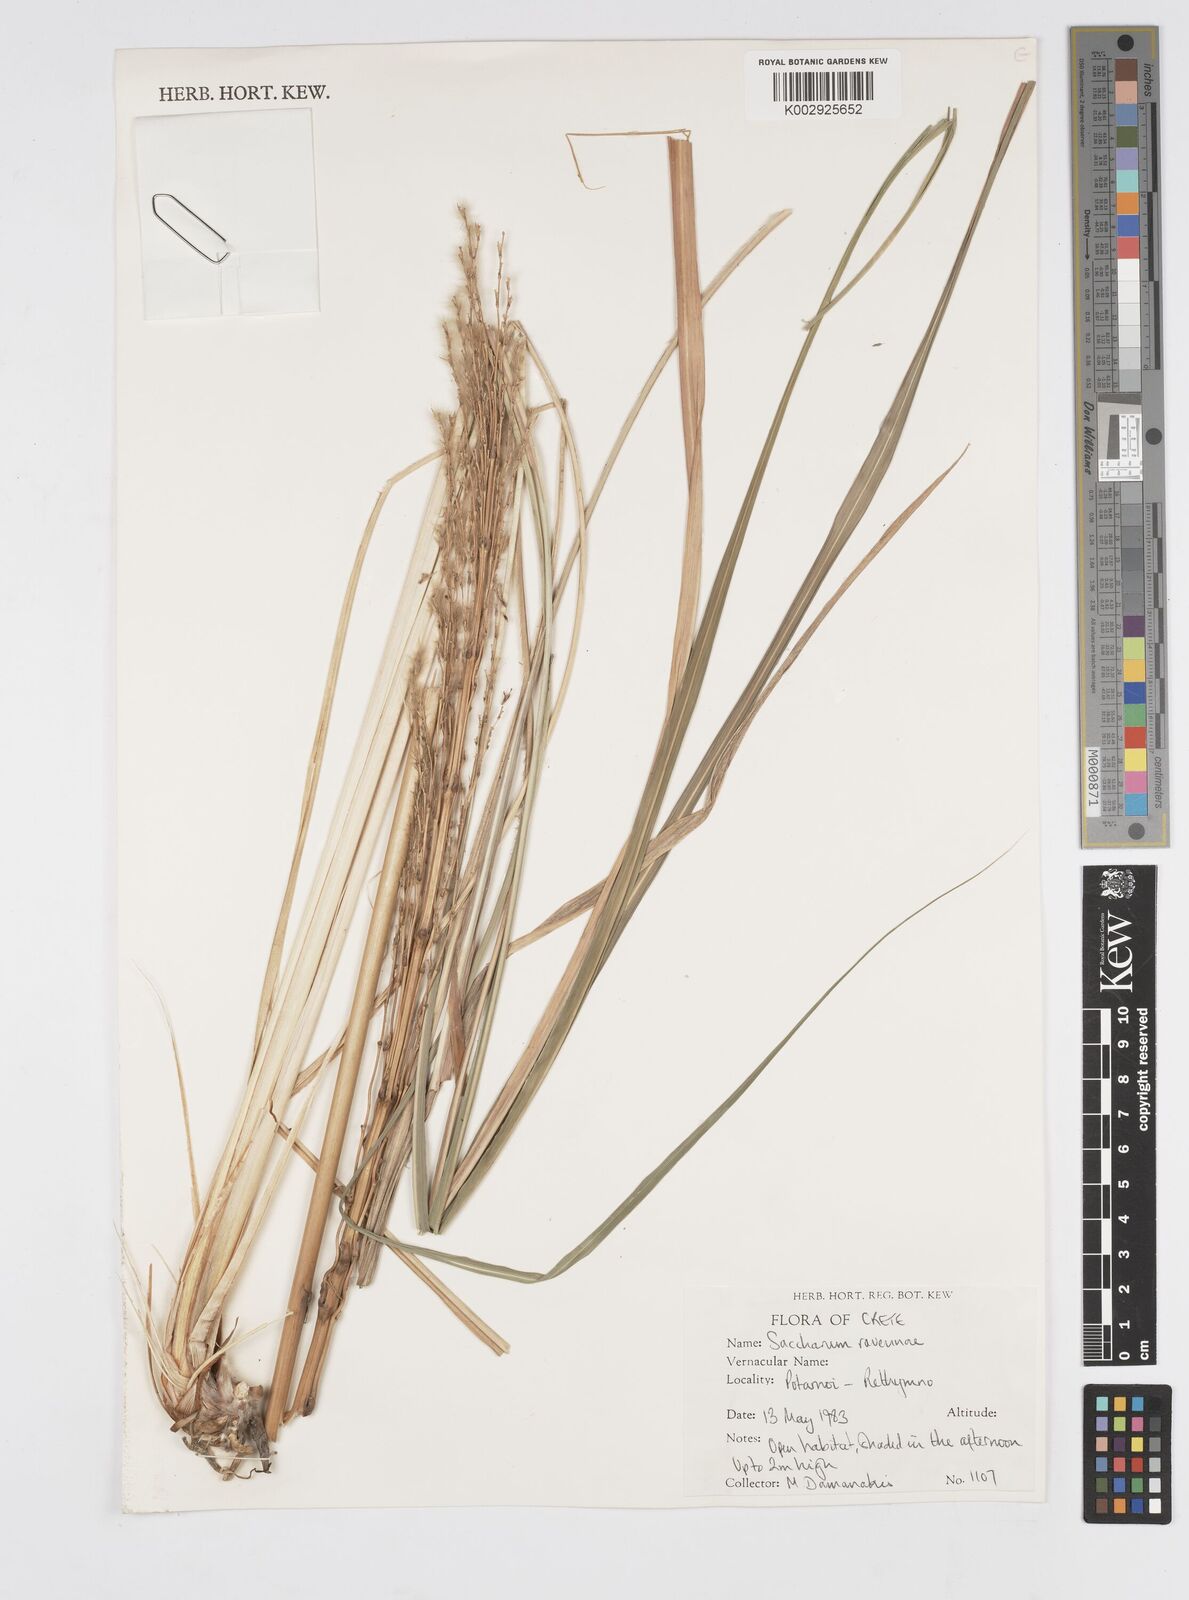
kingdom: Plantae
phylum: Tracheophyta
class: Liliopsida
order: Poales
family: Poaceae
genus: Tripidium
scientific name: Tripidium ravennae
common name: Ravenna grass
